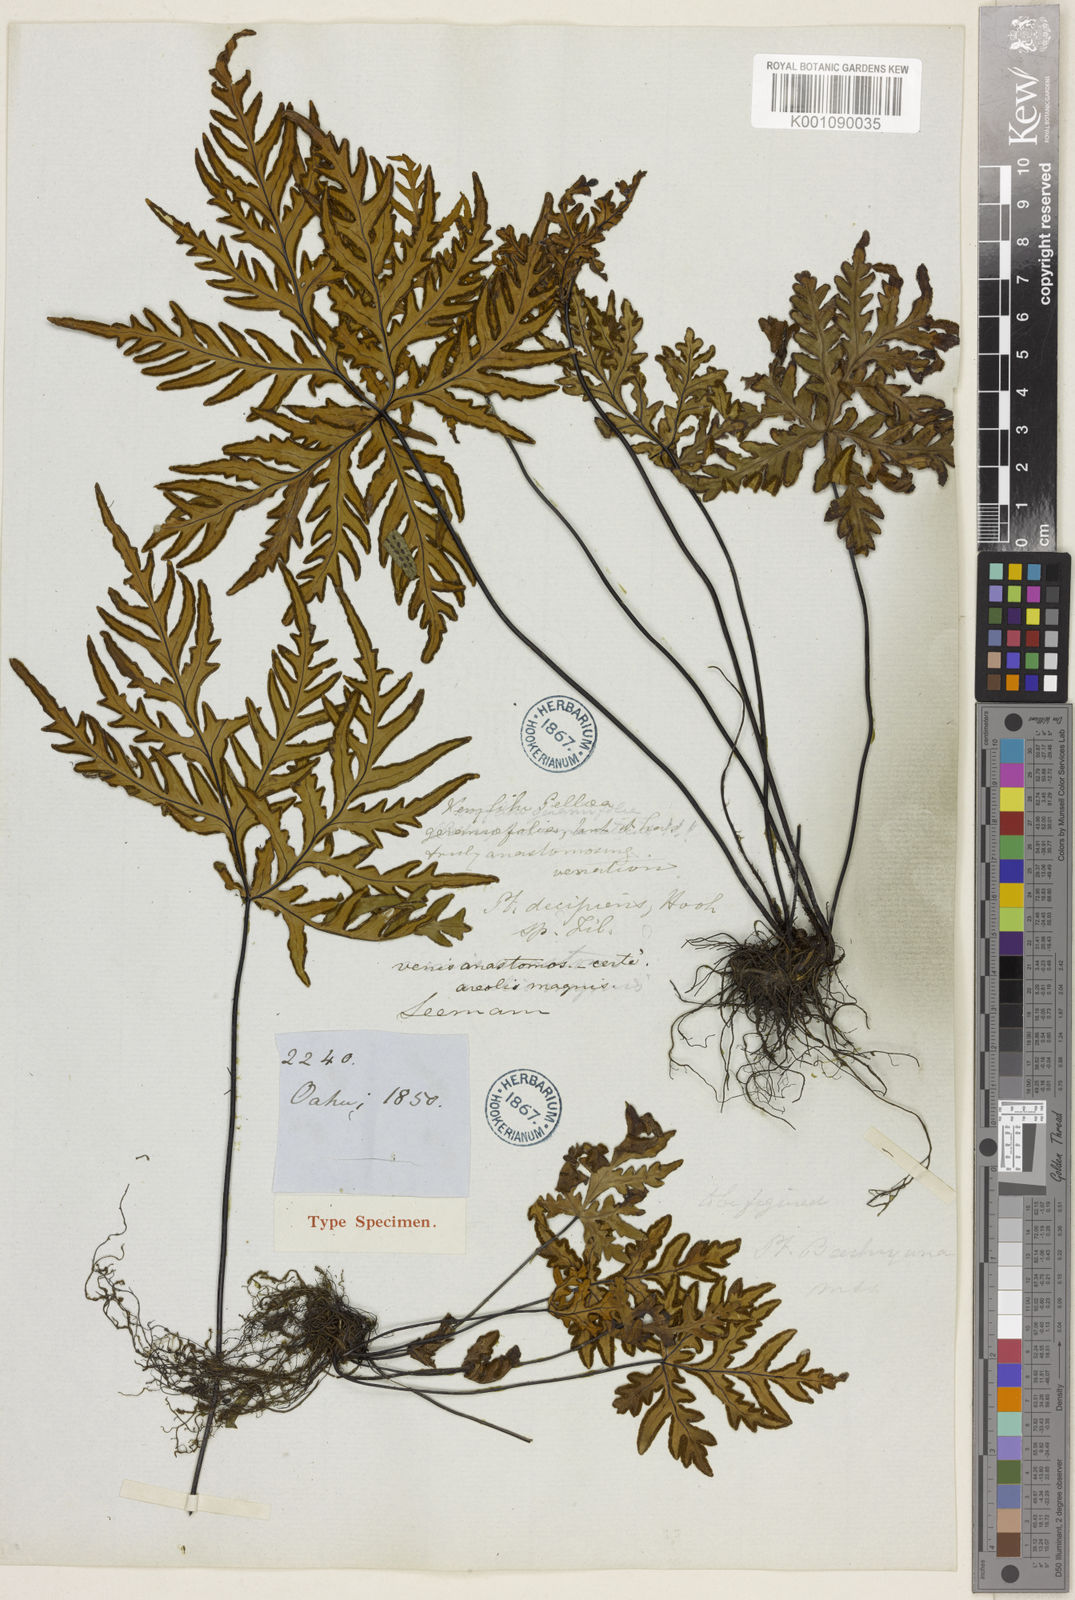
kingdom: Plantae
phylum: Tracheophyta
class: Polypodiopsida
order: Polypodiales
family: Pteridaceae
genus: Doryopteris
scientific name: Doryopteris decipiens
